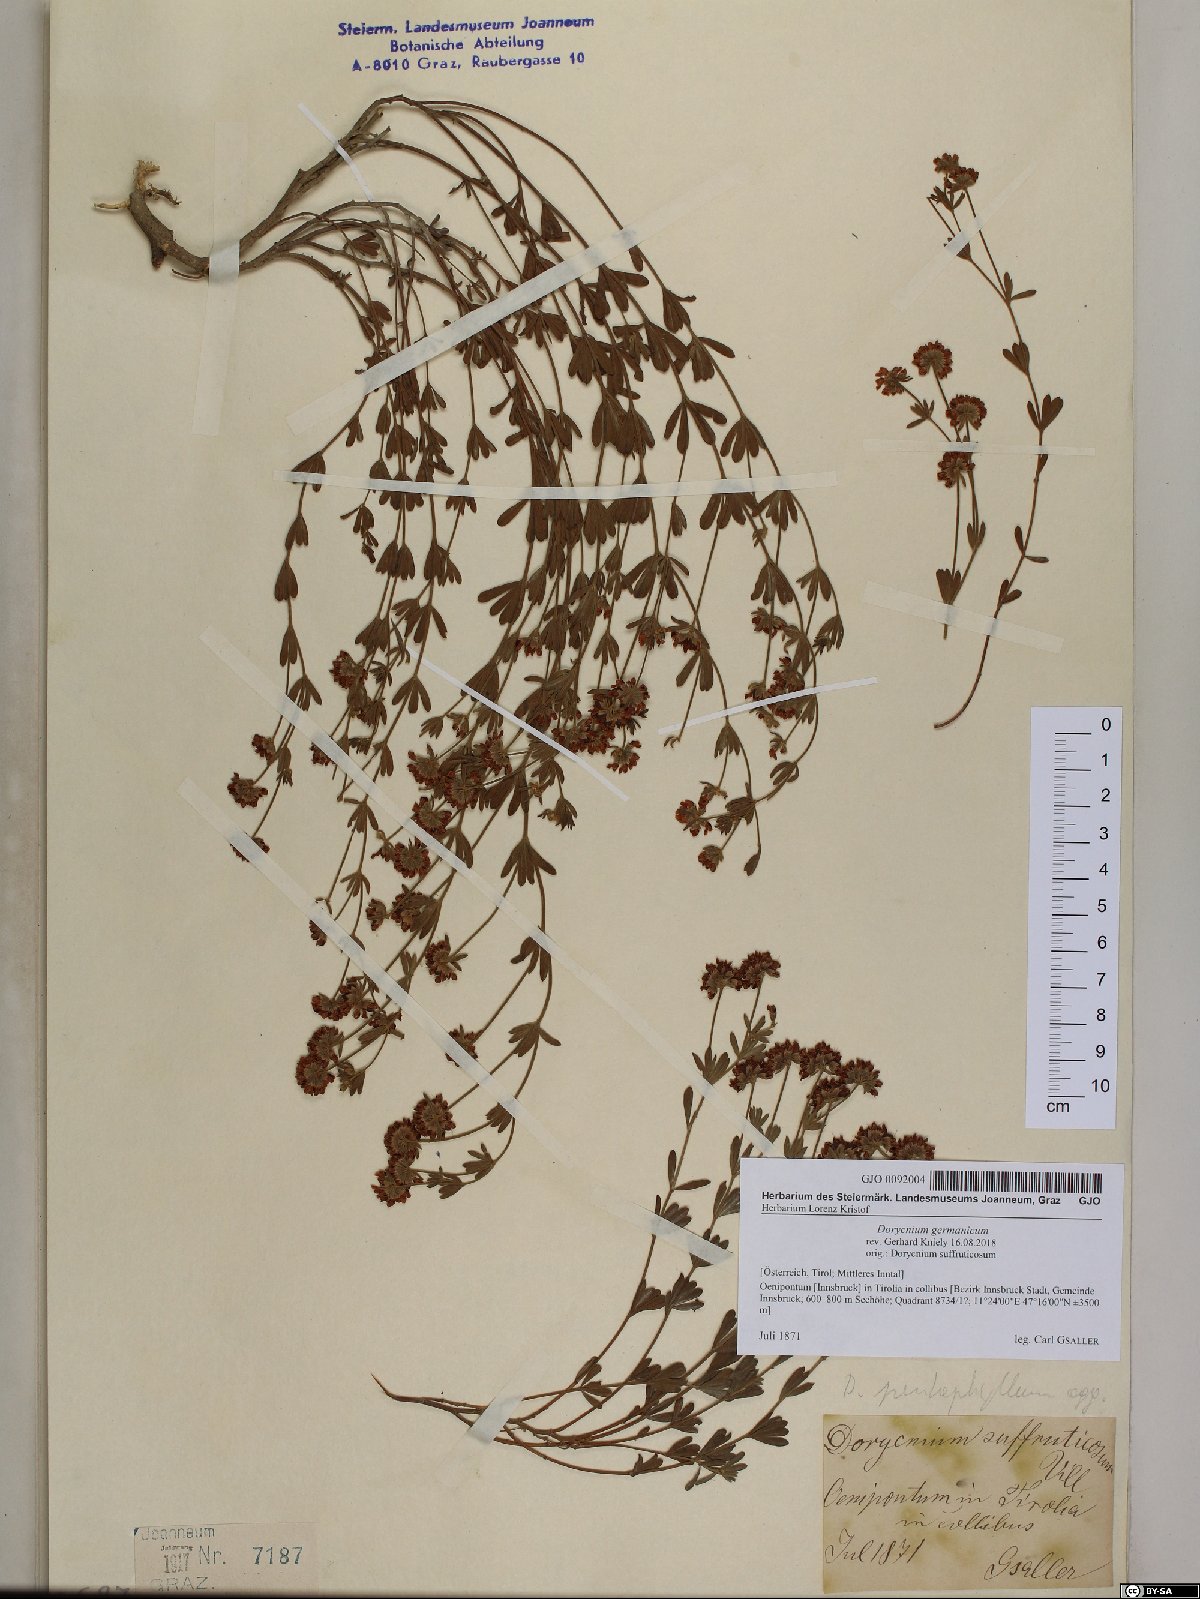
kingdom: Plantae
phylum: Tracheophyta
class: Magnoliopsida
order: Fabales
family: Fabaceae
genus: Lotus
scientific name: Lotus germanicus
